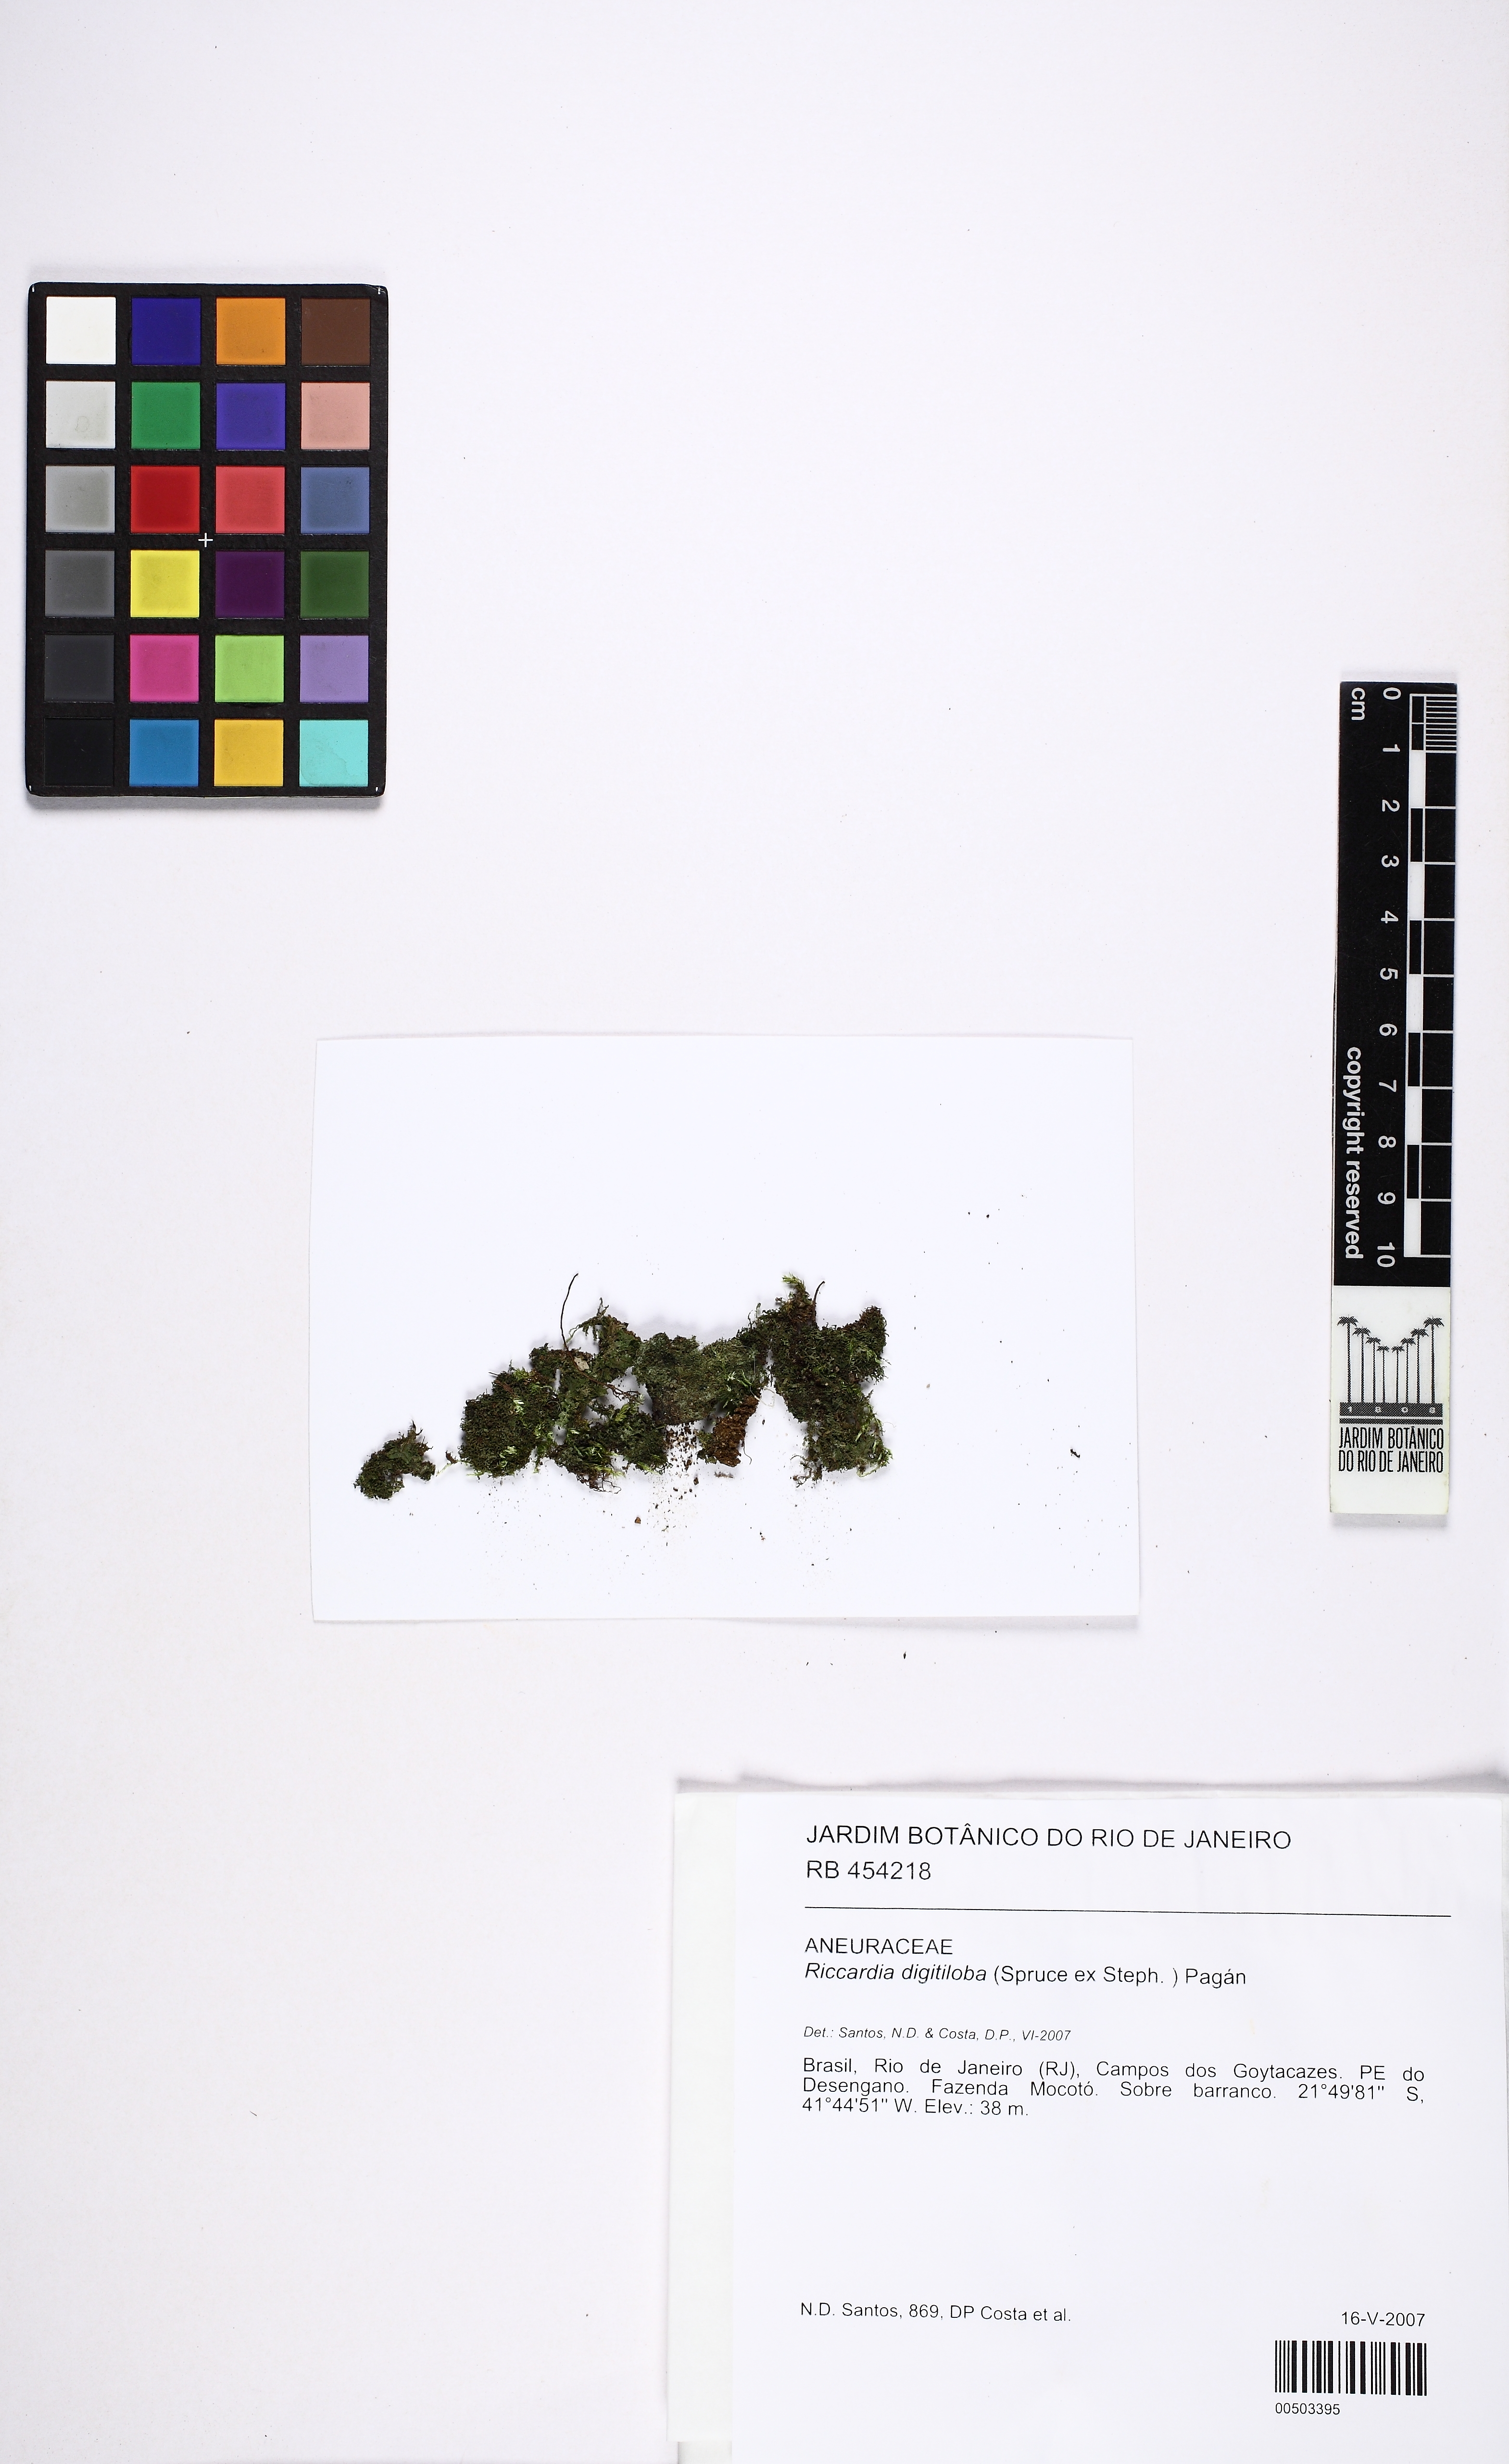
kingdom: Plantae
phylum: Marchantiophyta
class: Jungermanniopsida
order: Metzgeriales
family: Aneuraceae
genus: Riccardia
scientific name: Riccardia digitiloba
